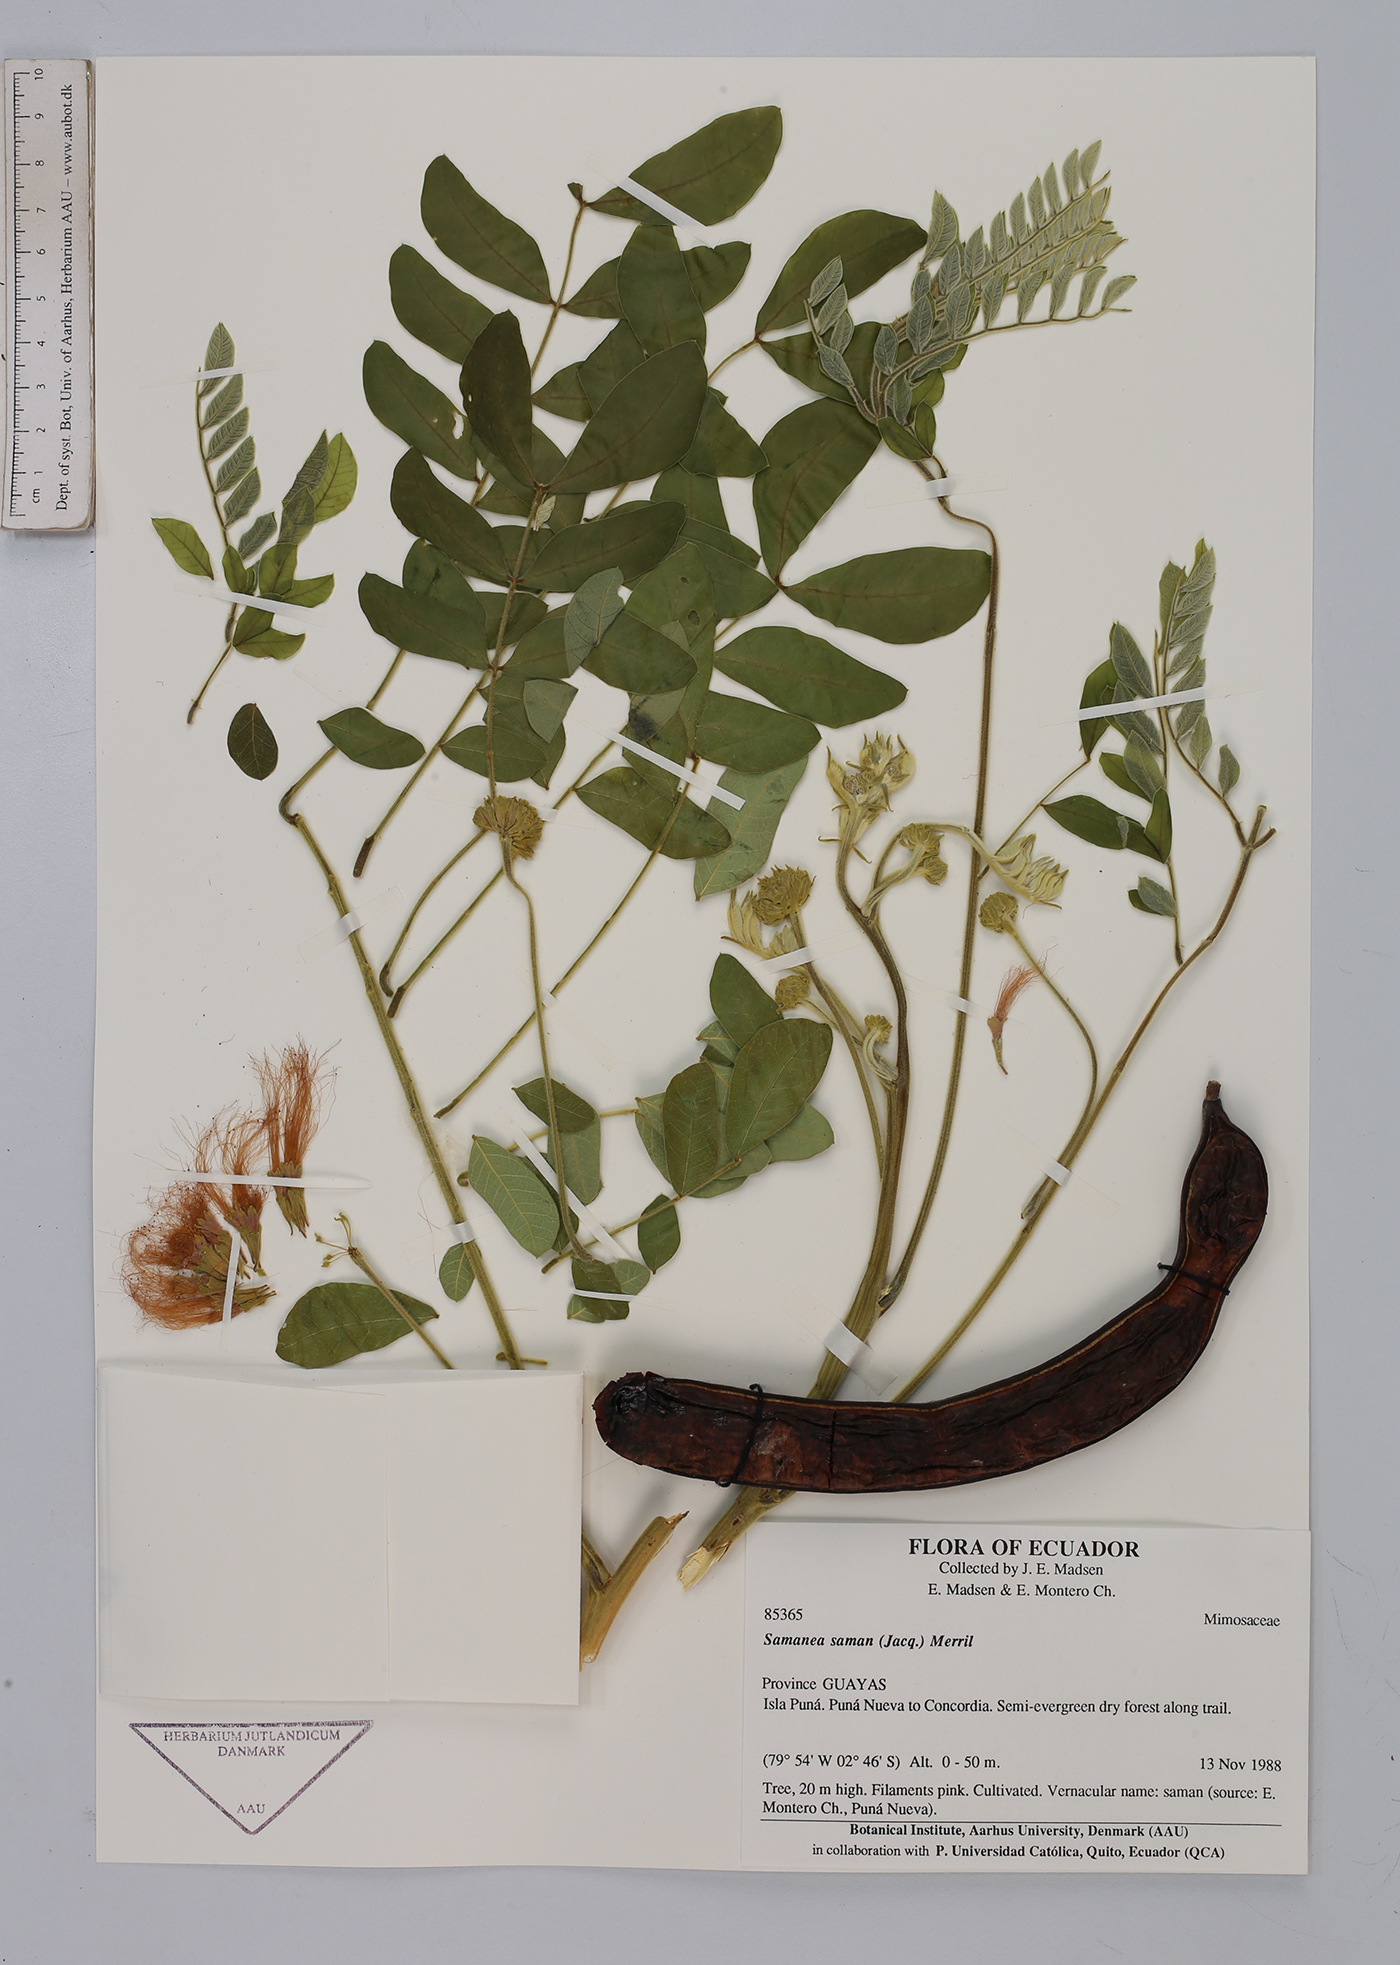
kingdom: Plantae
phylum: Tracheophyta
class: Magnoliopsida
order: Fabales
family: Fabaceae
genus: Samanea
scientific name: Samanea saman
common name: Raintree
